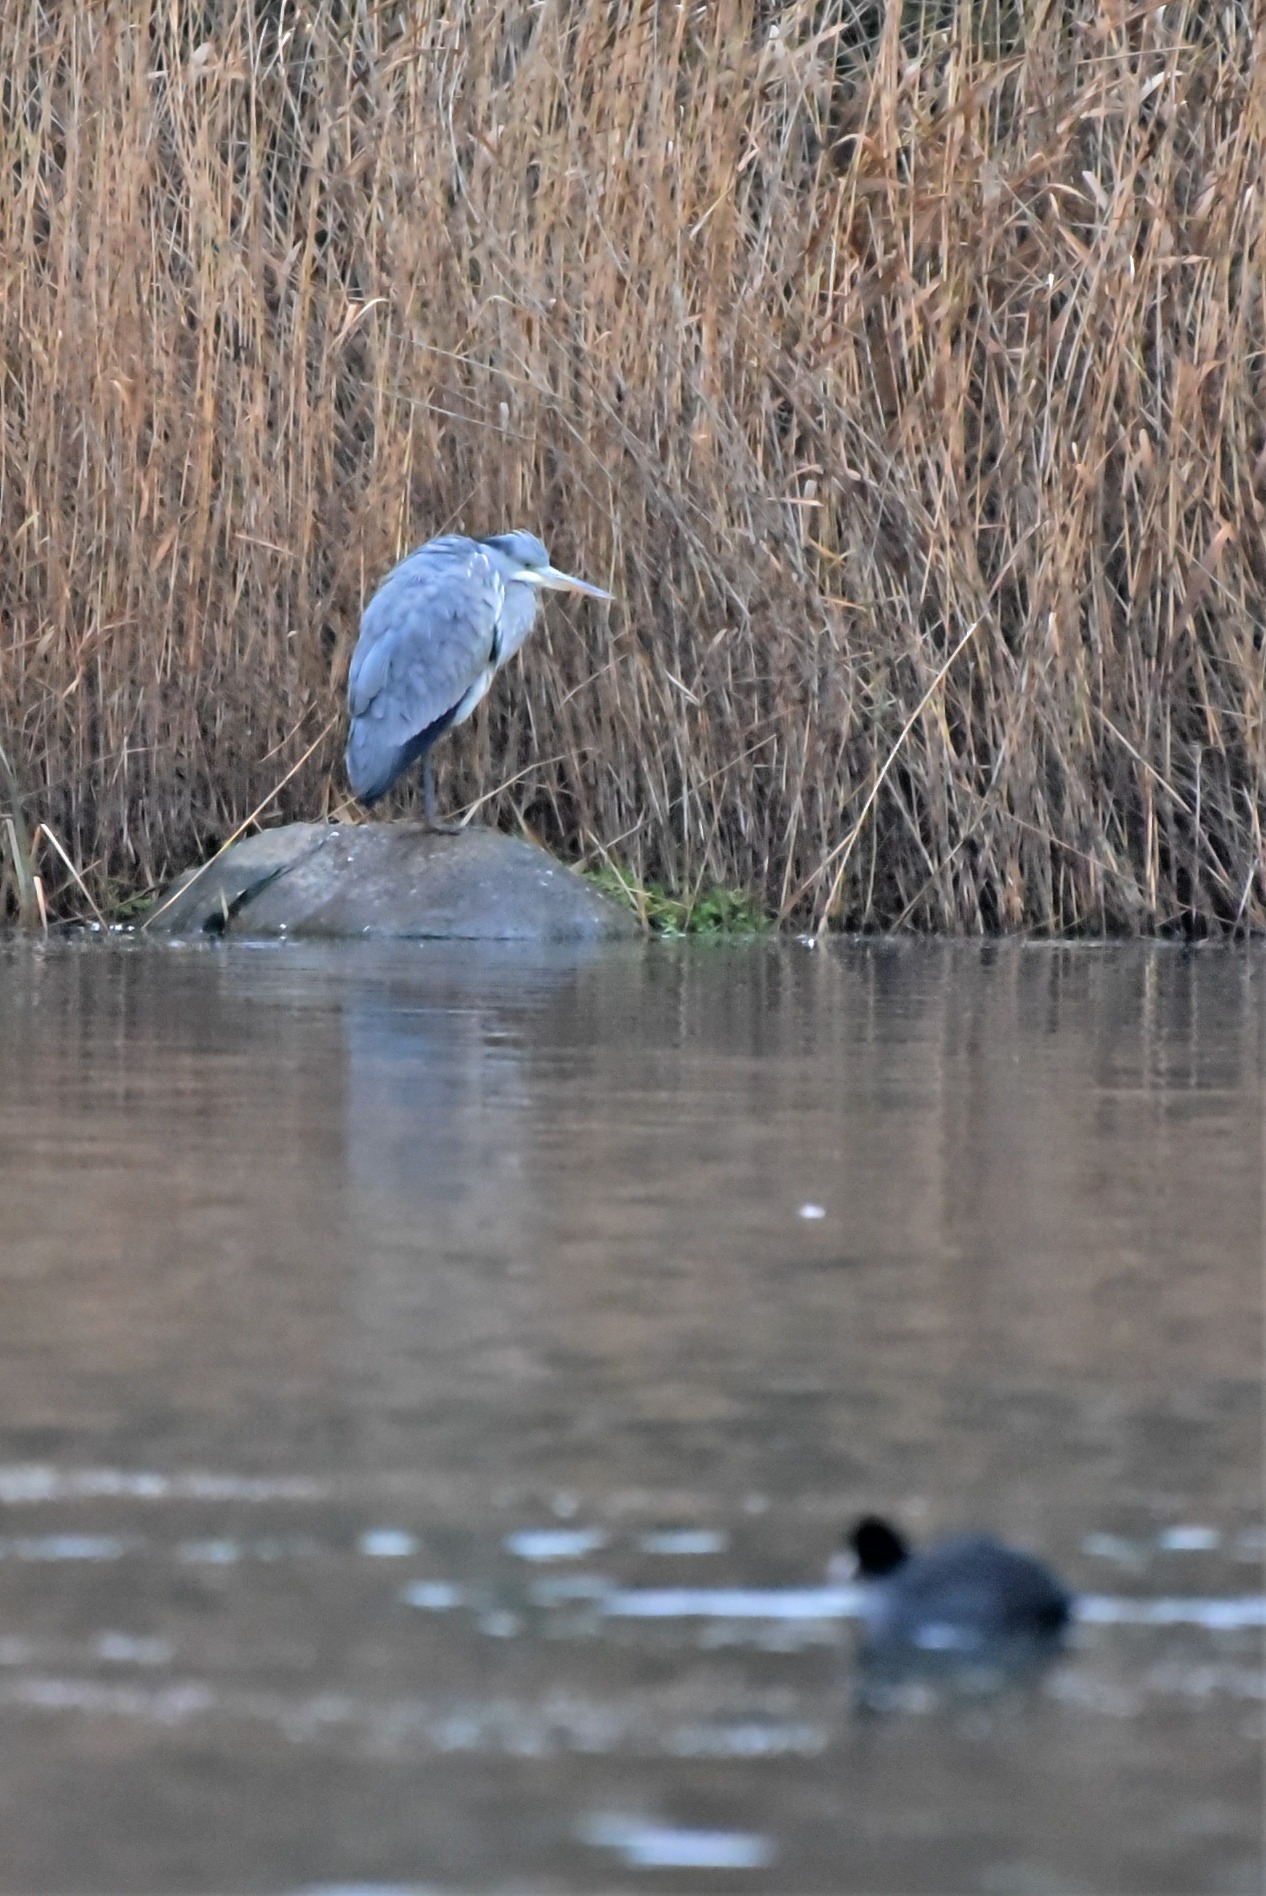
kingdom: Animalia
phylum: Chordata
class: Aves
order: Pelecaniformes
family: Ardeidae
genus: Ardea
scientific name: Ardea cinerea
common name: Fiskehejre
